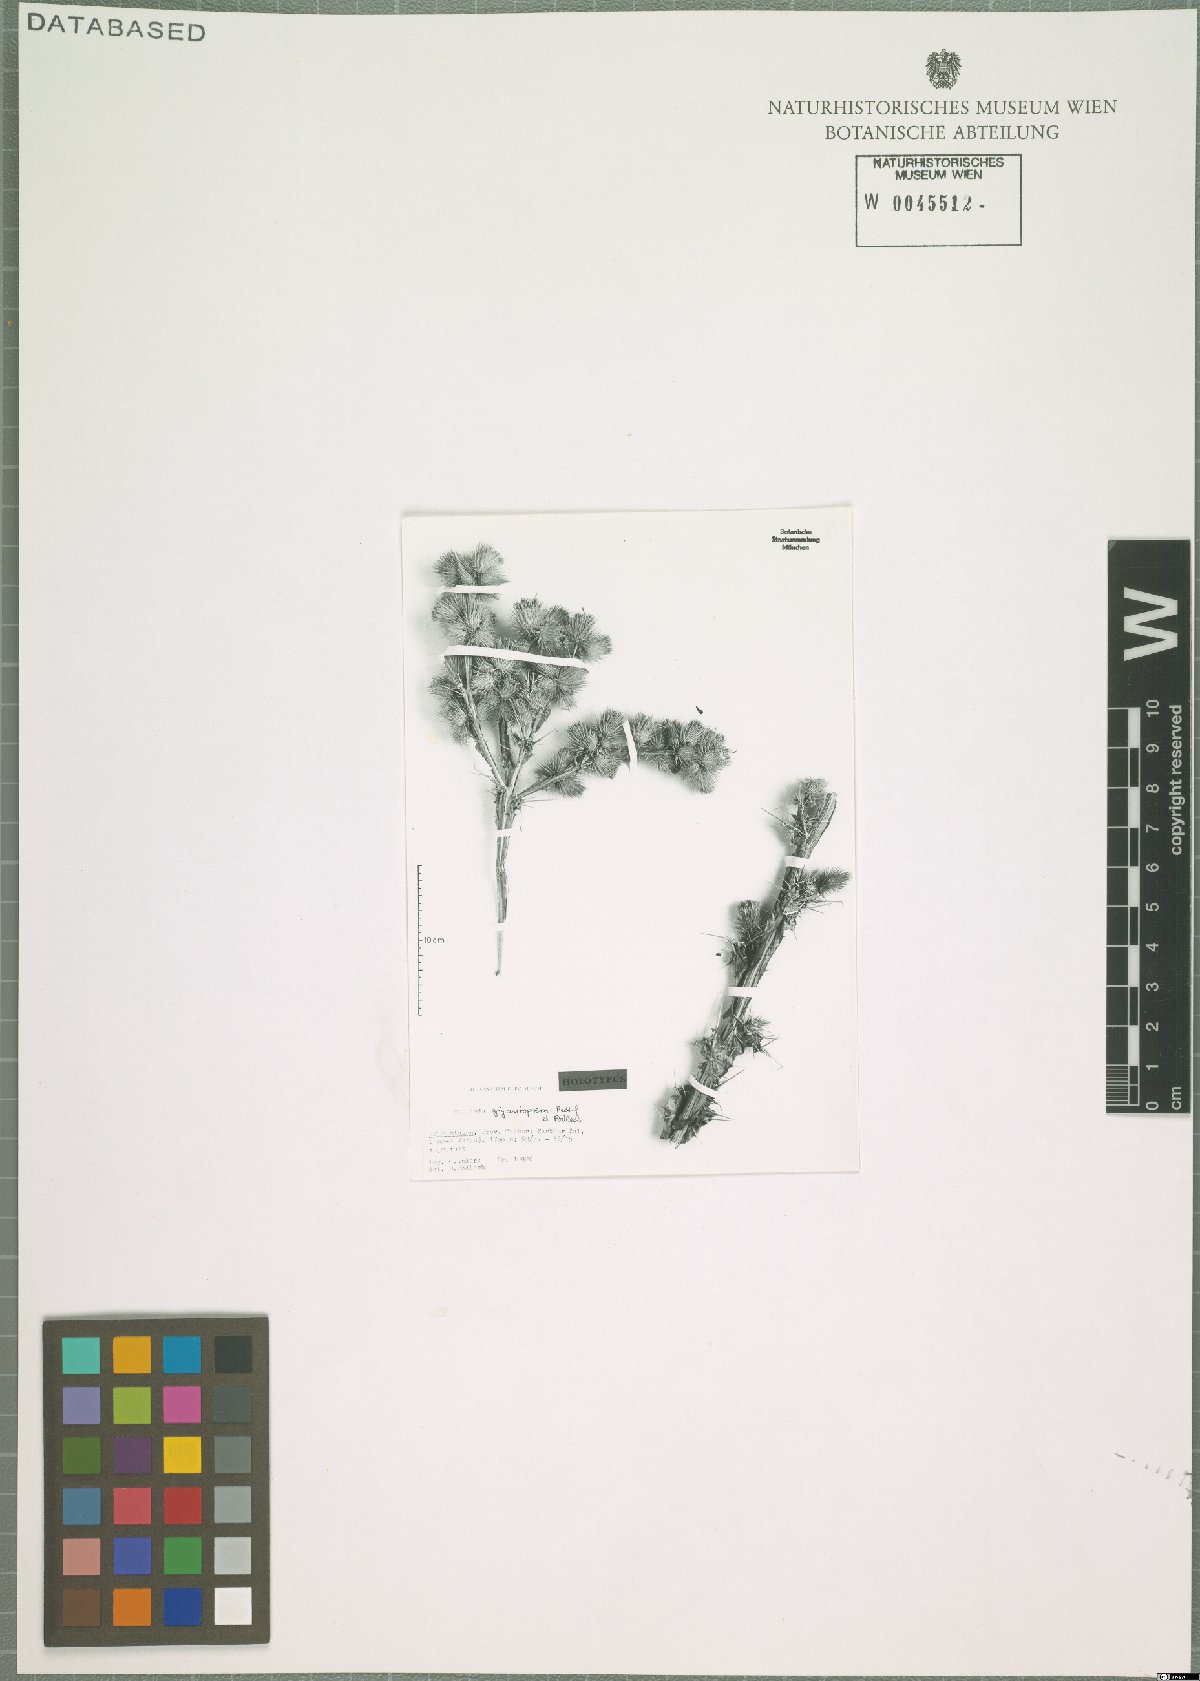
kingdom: Plantae
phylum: Tracheophyta
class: Magnoliopsida
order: Asterales
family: Asteraceae
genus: Cousinia
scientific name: Cousinia gigantoptera
